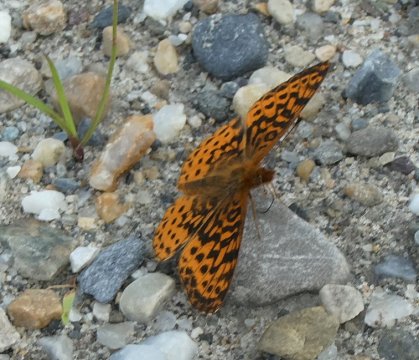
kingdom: Animalia
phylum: Arthropoda
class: Insecta
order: Lepidoptera
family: Nymphalidae
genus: Clossiana
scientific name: Clossiana toddi
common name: Meadow Fritillary
